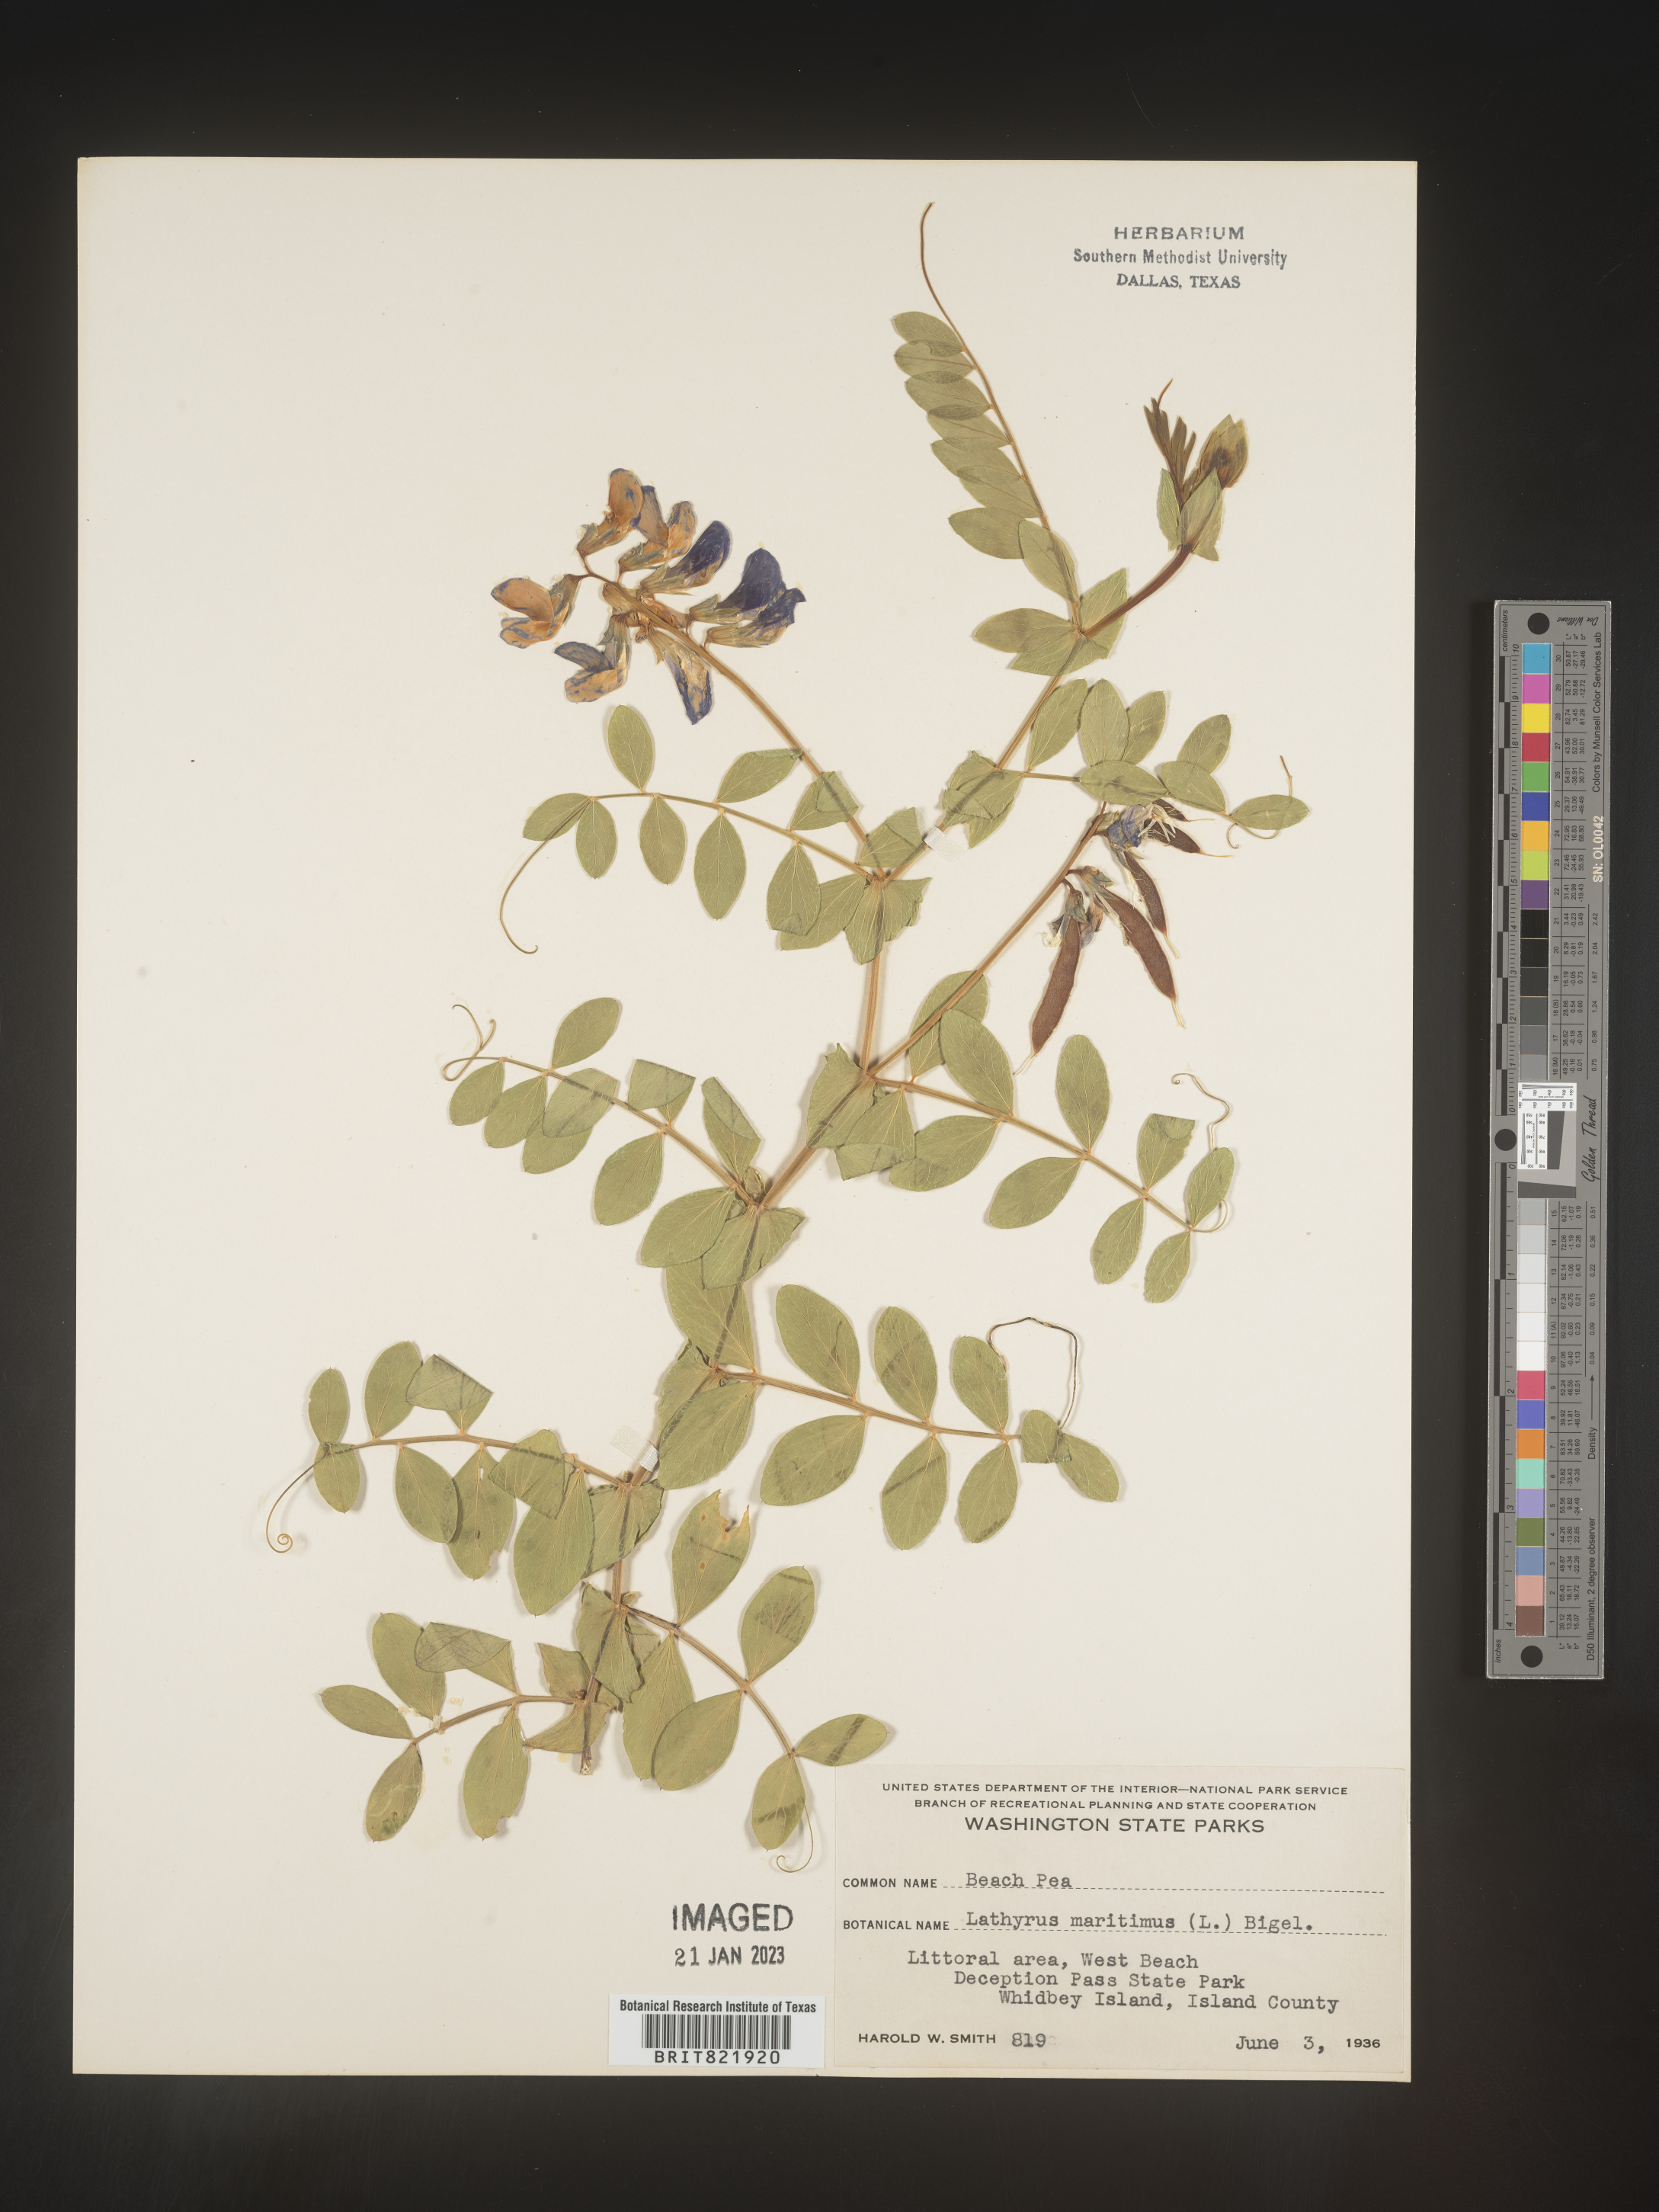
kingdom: Plantae
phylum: Tracheophyta
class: Magnoliopsida
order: Fabales
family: Fabaceae
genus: Lathyrus
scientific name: Lathyrus
